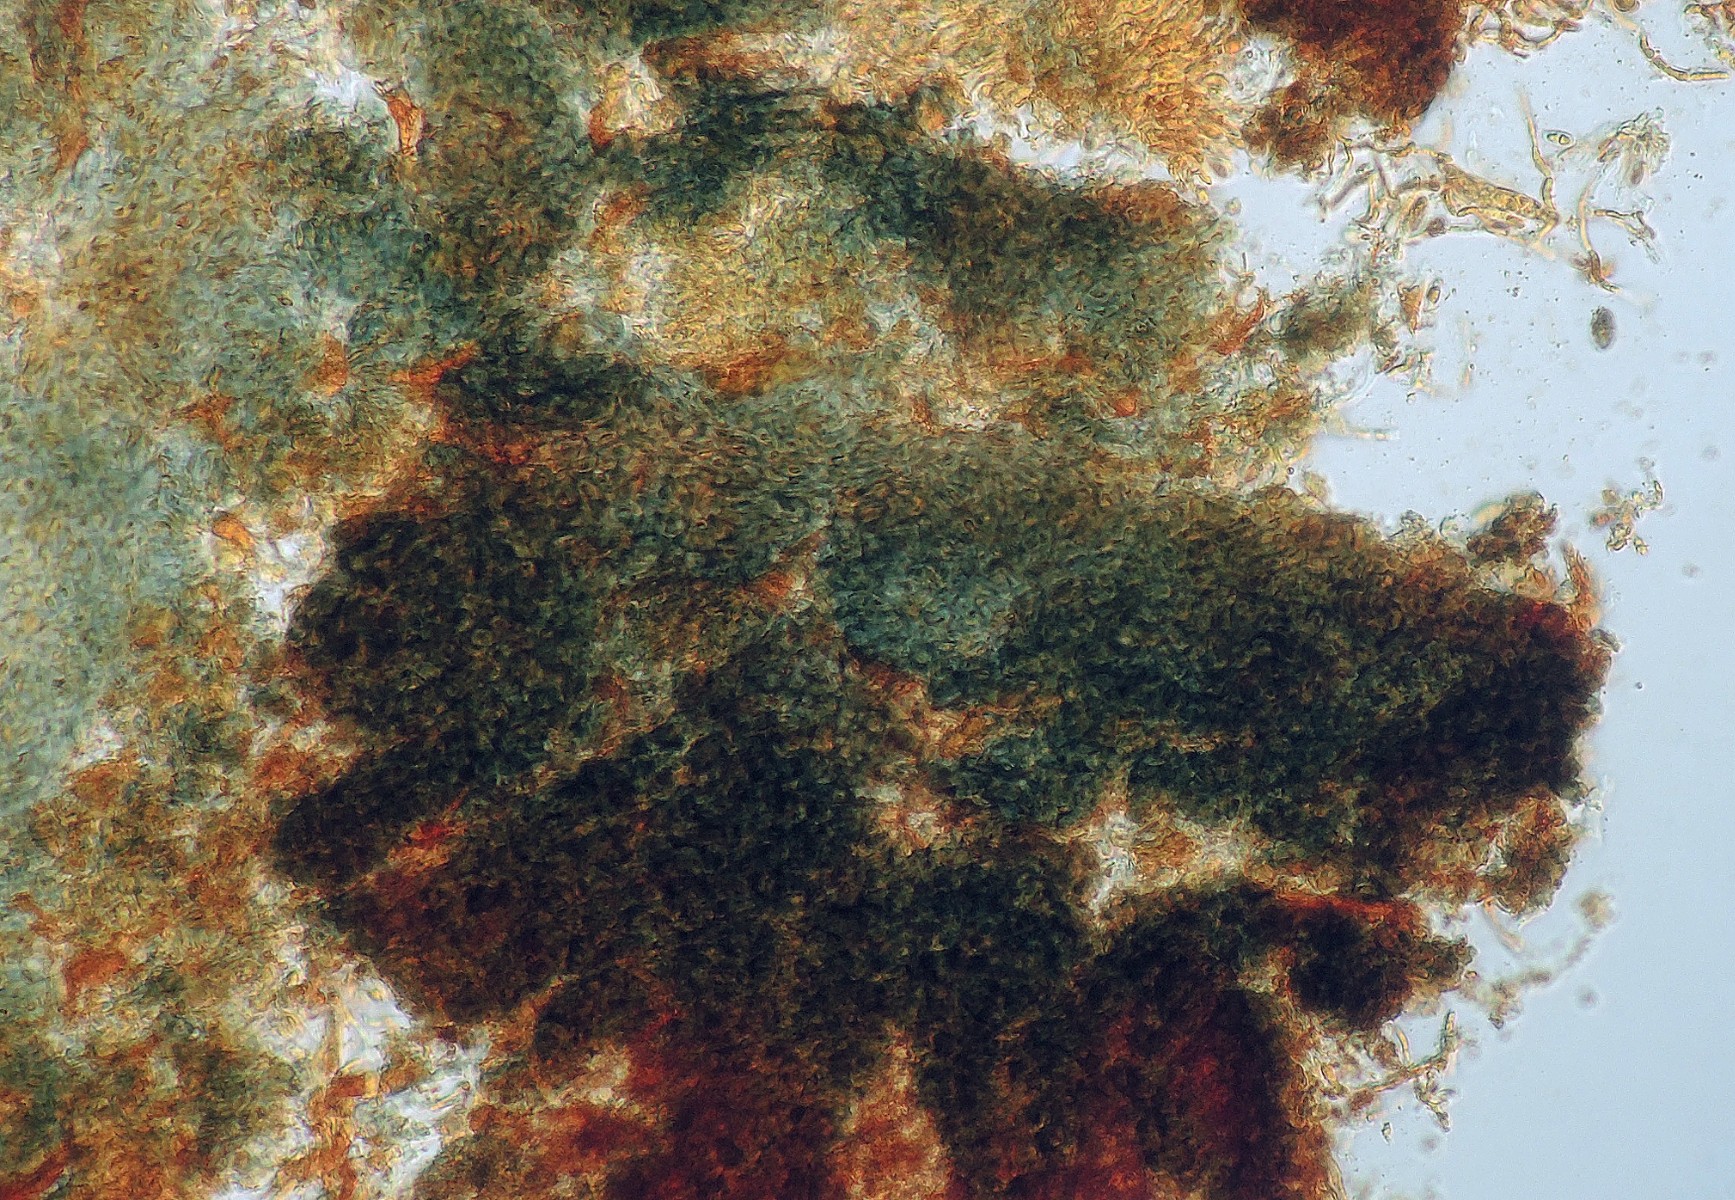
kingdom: Fungi
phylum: Ascomycota
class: Lecanoromycetes
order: Caliciales
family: Caliciaceae
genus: Calicium
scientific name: Calicium salicinum
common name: persoons nålelav
